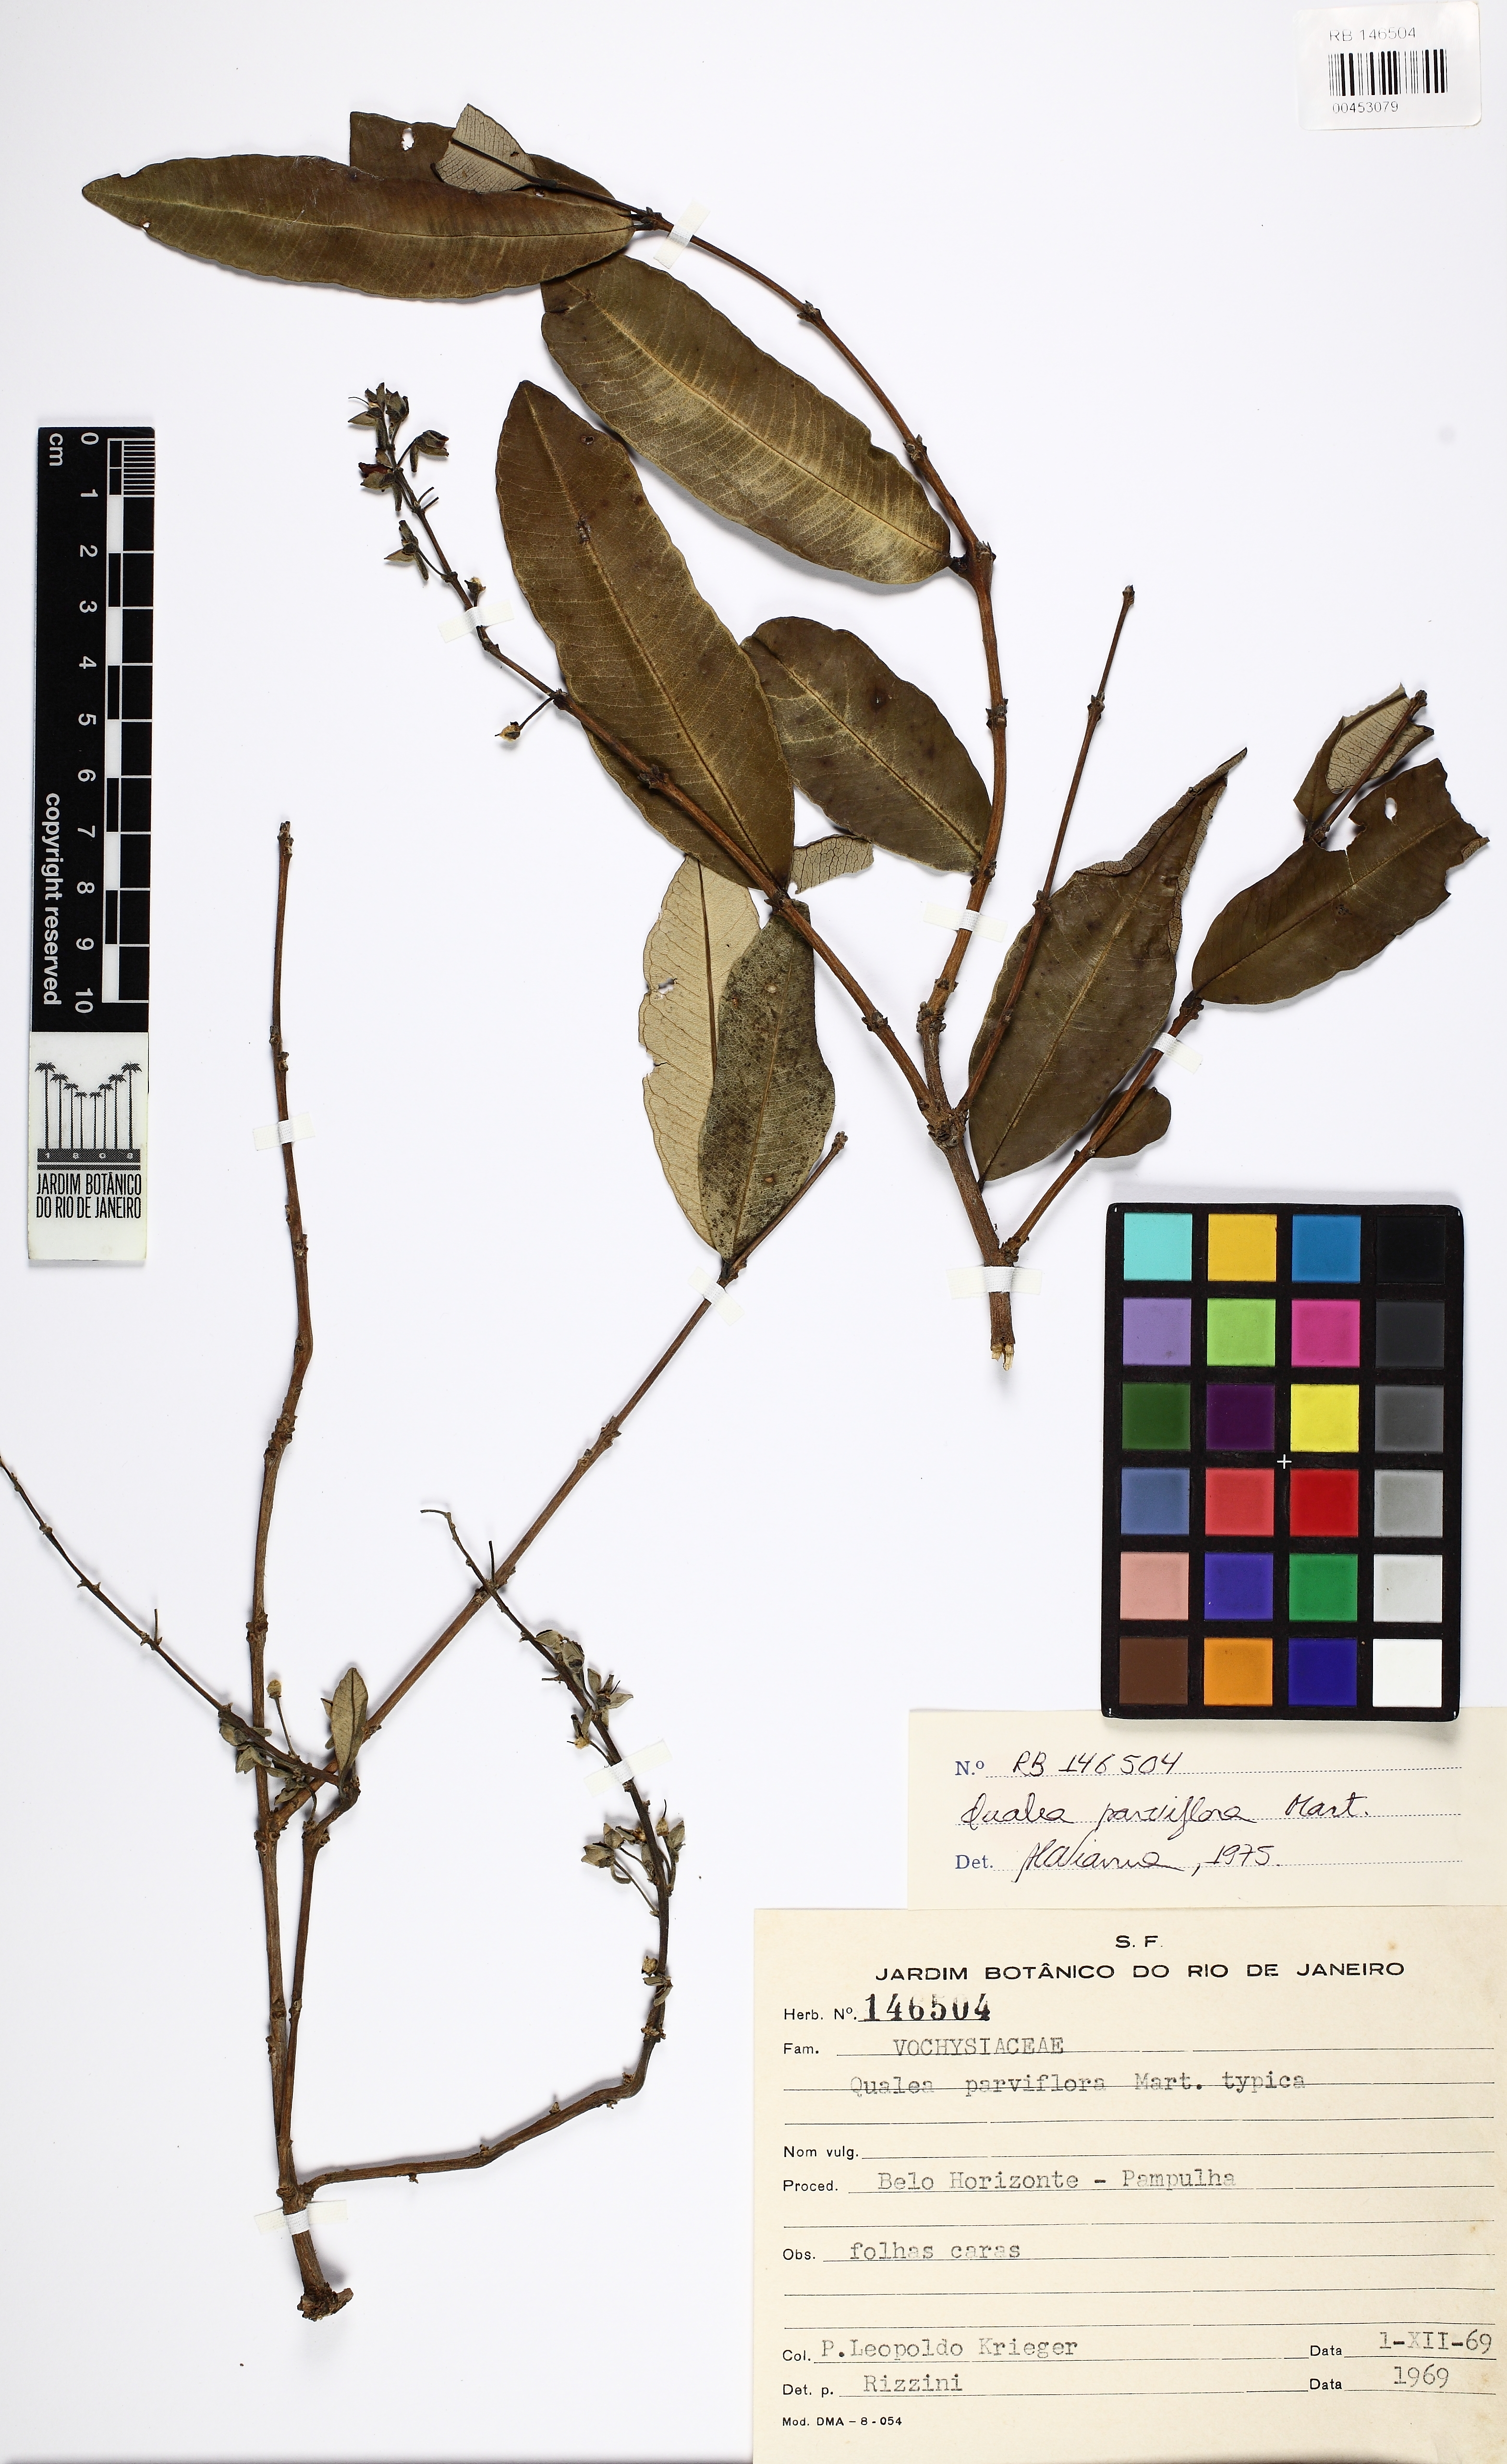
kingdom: Plantae
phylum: Tracheophyta
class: Magnoliopsida
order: Myrtales
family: Vochysiaceae
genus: Qualea
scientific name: Qualea parviflora
